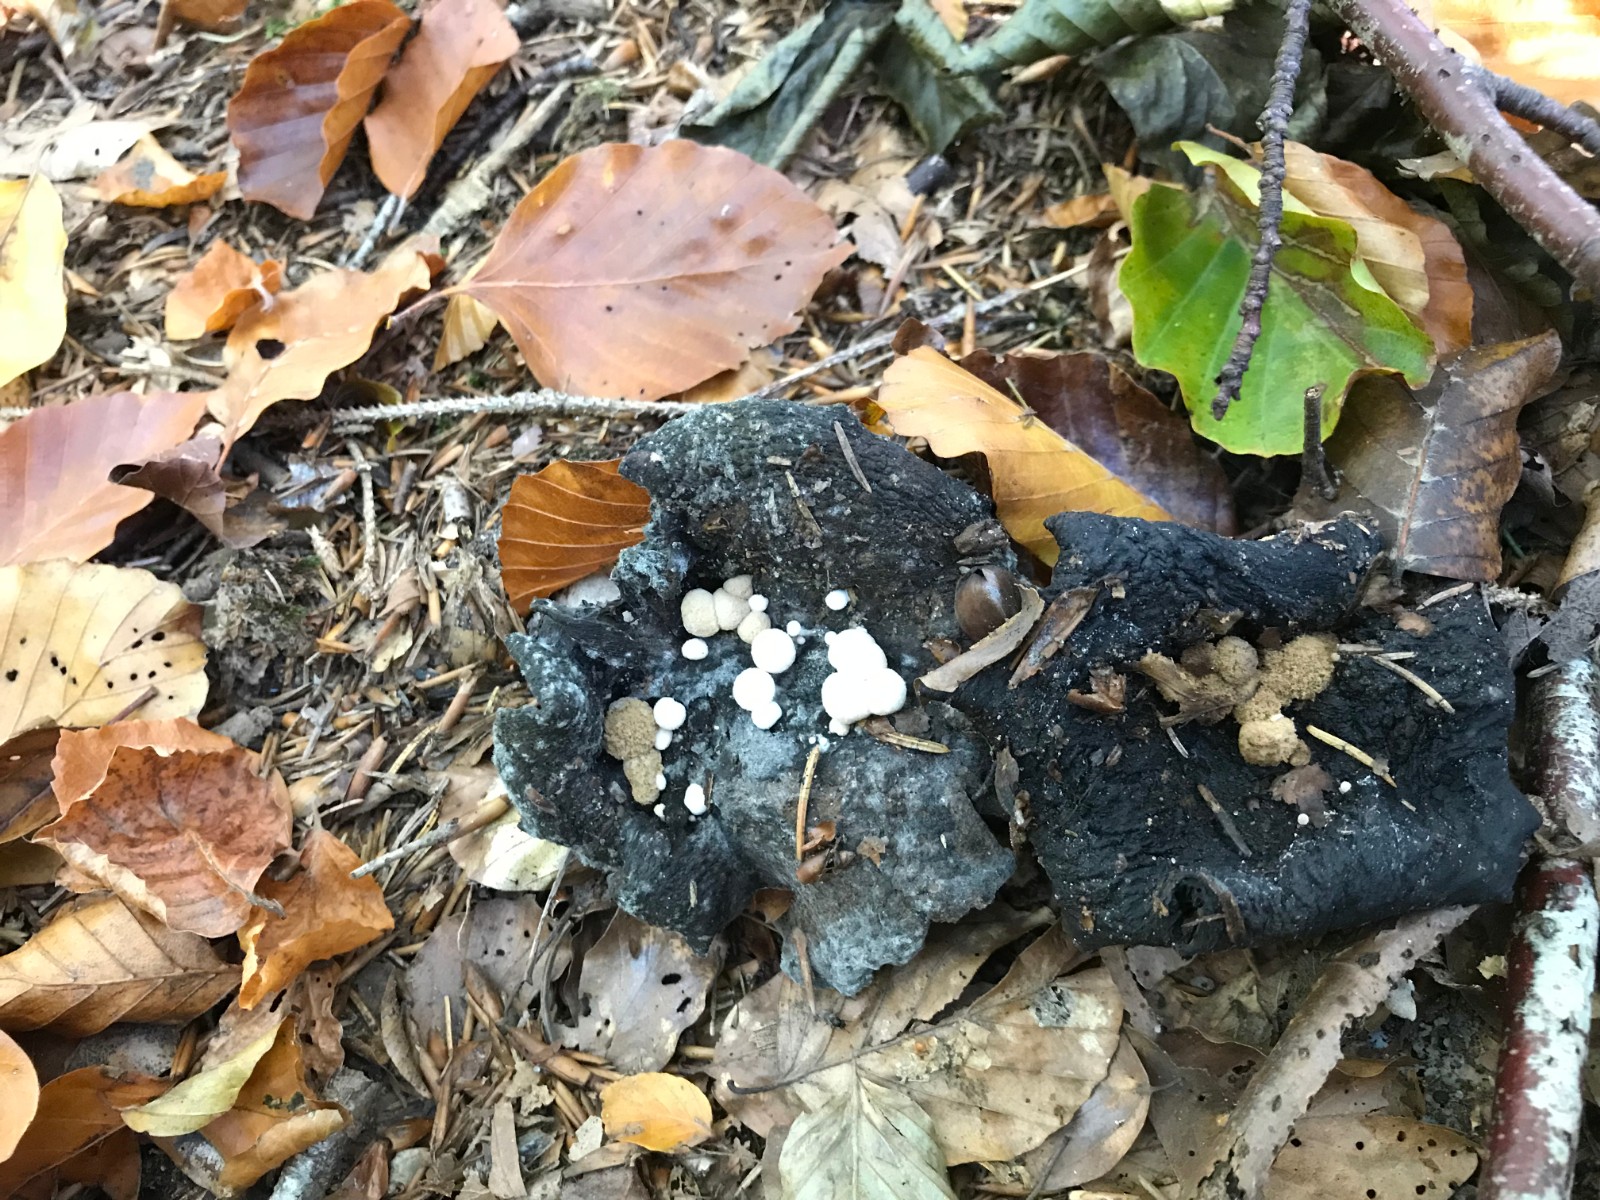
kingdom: Fungi
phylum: Basidiomycota
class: Agaricomycetes
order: Agaricales
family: Lyophyllaceae
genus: Asterophora
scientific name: Asterophora lycoperdoides
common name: brunpudret snyltehat
